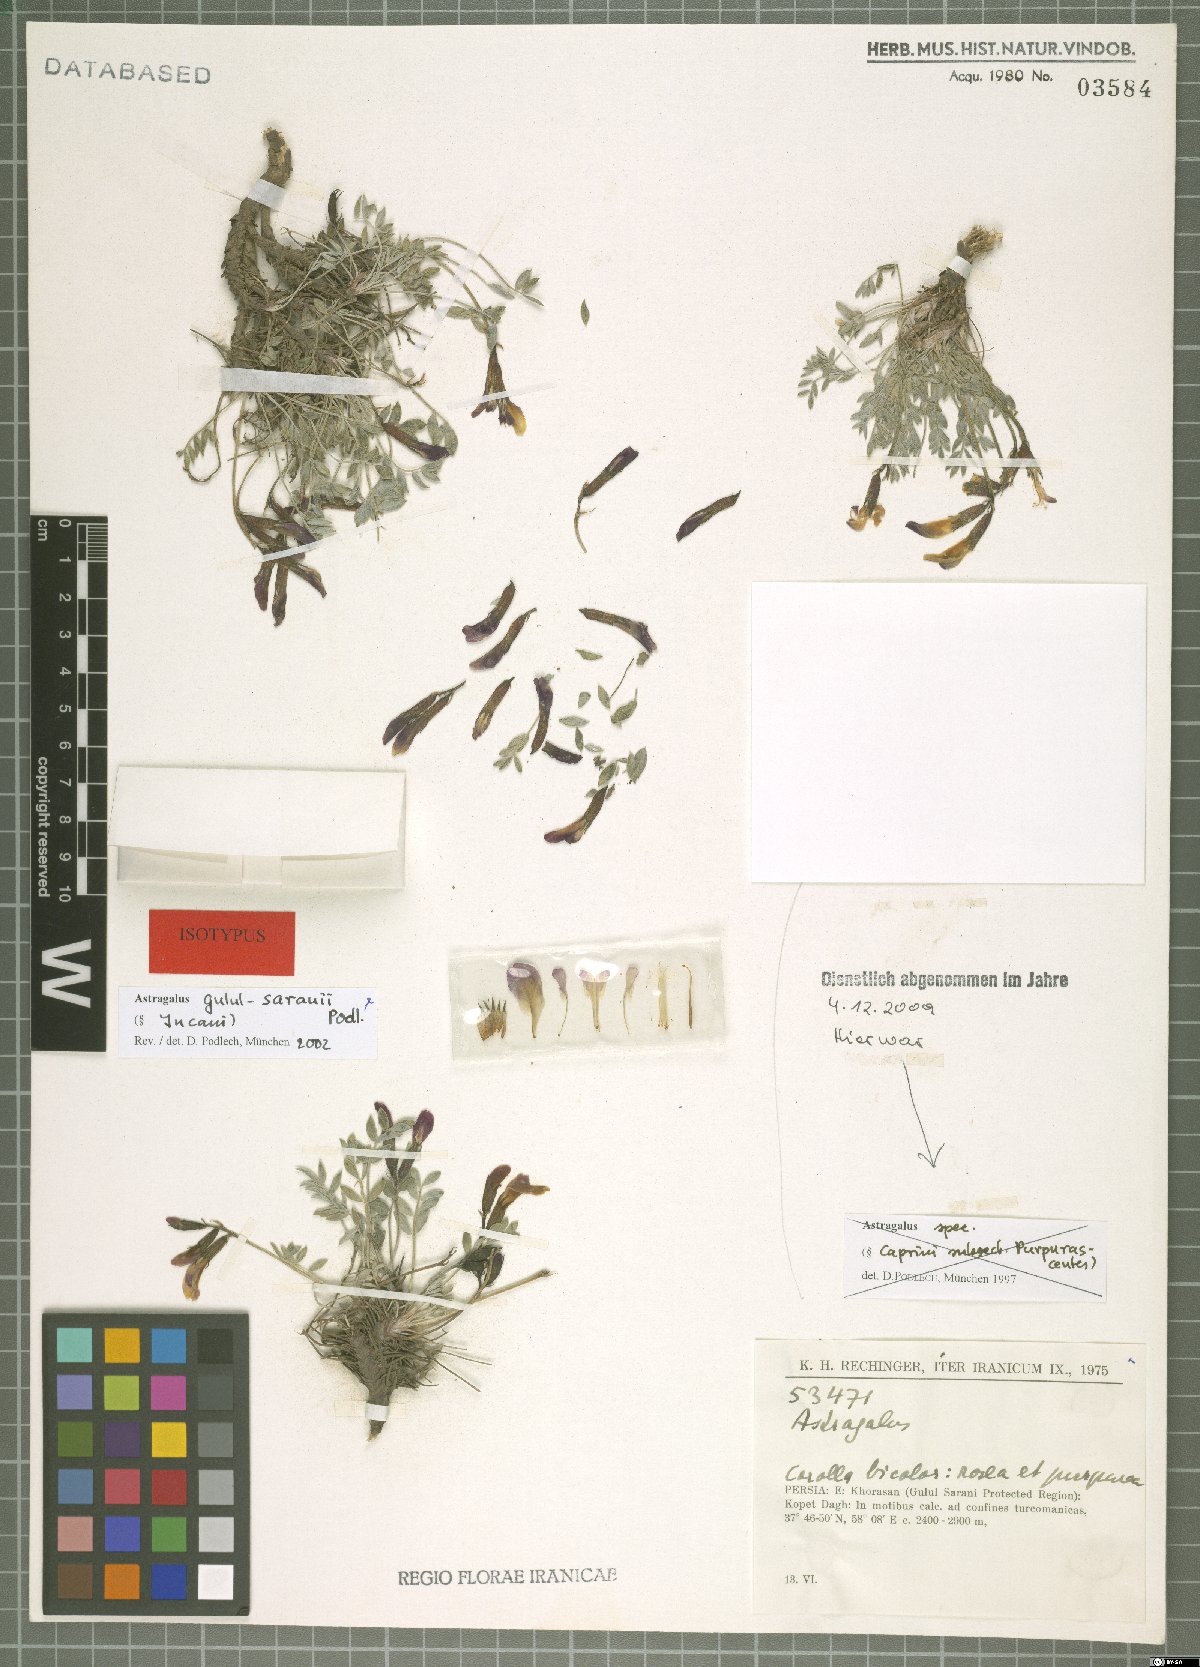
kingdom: Plantae
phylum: Tracheophyta
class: Magnoliopsida
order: Fabales
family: Fabaceae
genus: Astragalus
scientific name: Astragalus gulul-saranii
